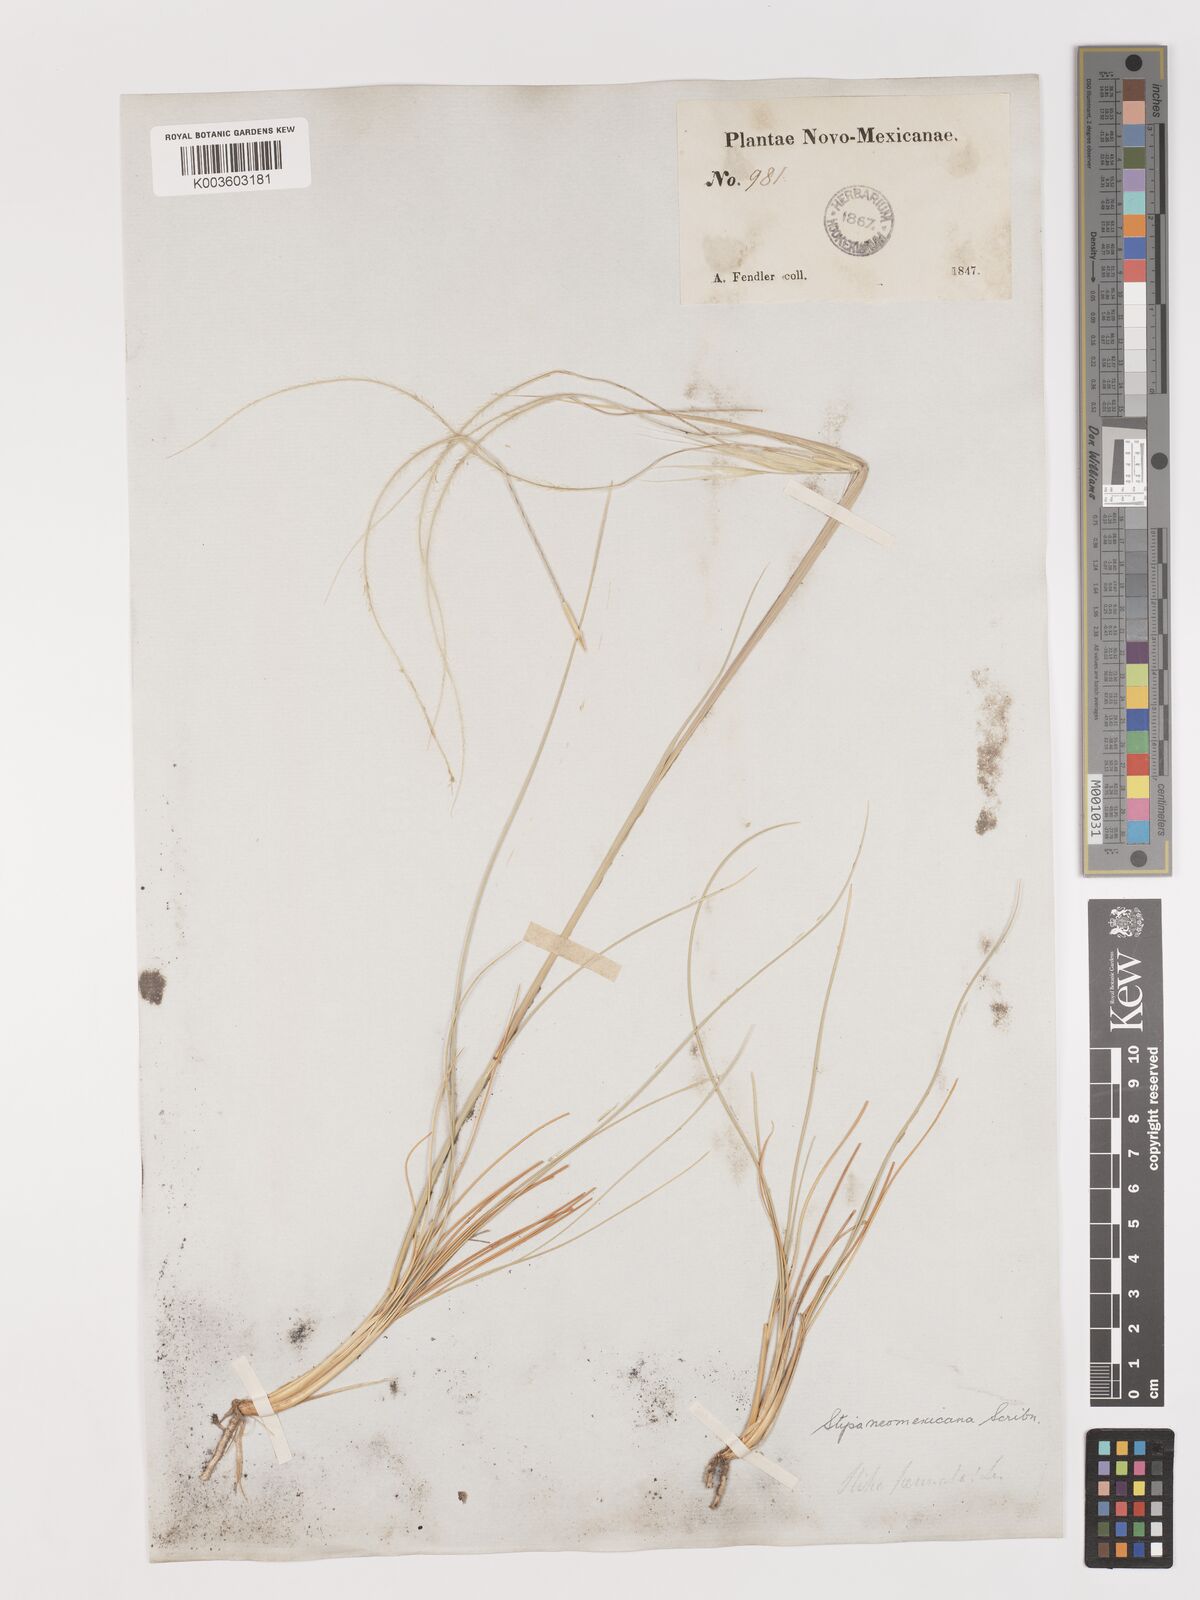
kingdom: Plantae
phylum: Tracheophyta
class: Liliopsida
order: Poales
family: Poaceae
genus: Hesperostipa
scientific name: Hesperostipa neomexicana
